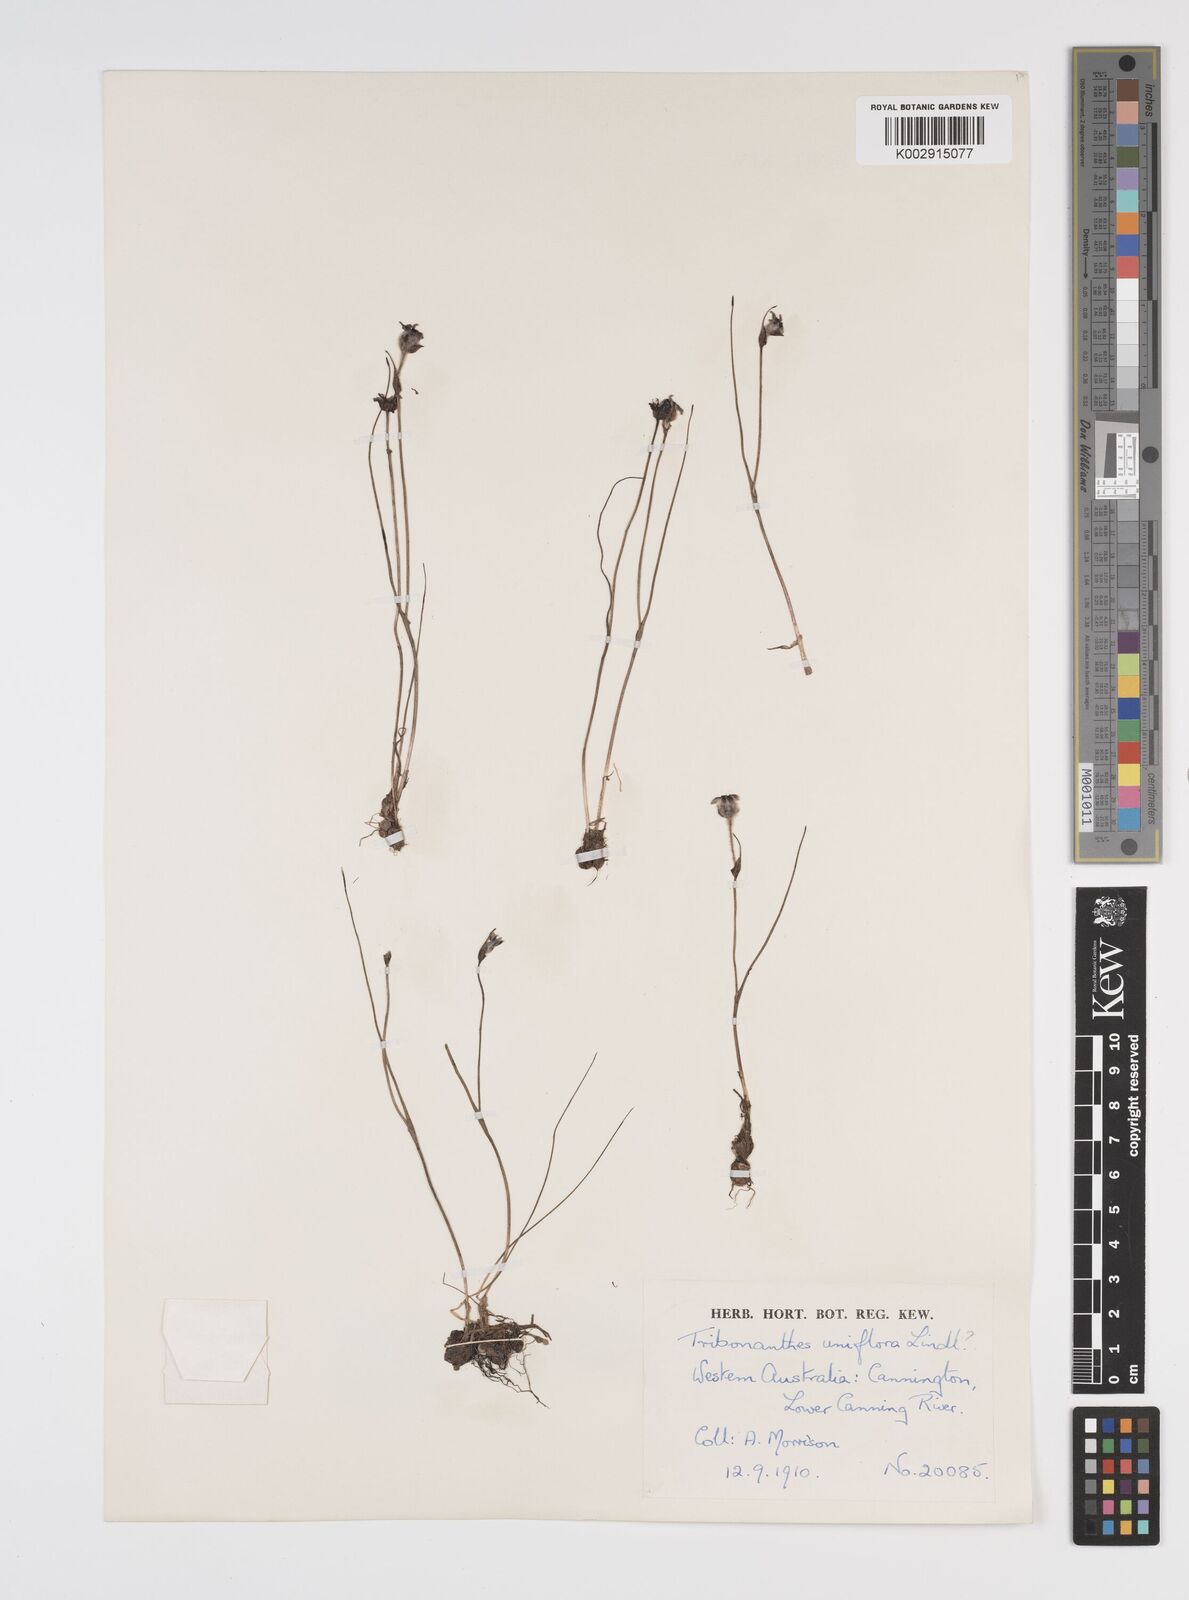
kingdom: Plantae
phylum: Tracheophyta
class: Liliopsida
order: Commelinales
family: Haemodoraceae
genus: Tribonanthes
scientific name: Tribonanthes uniflora
